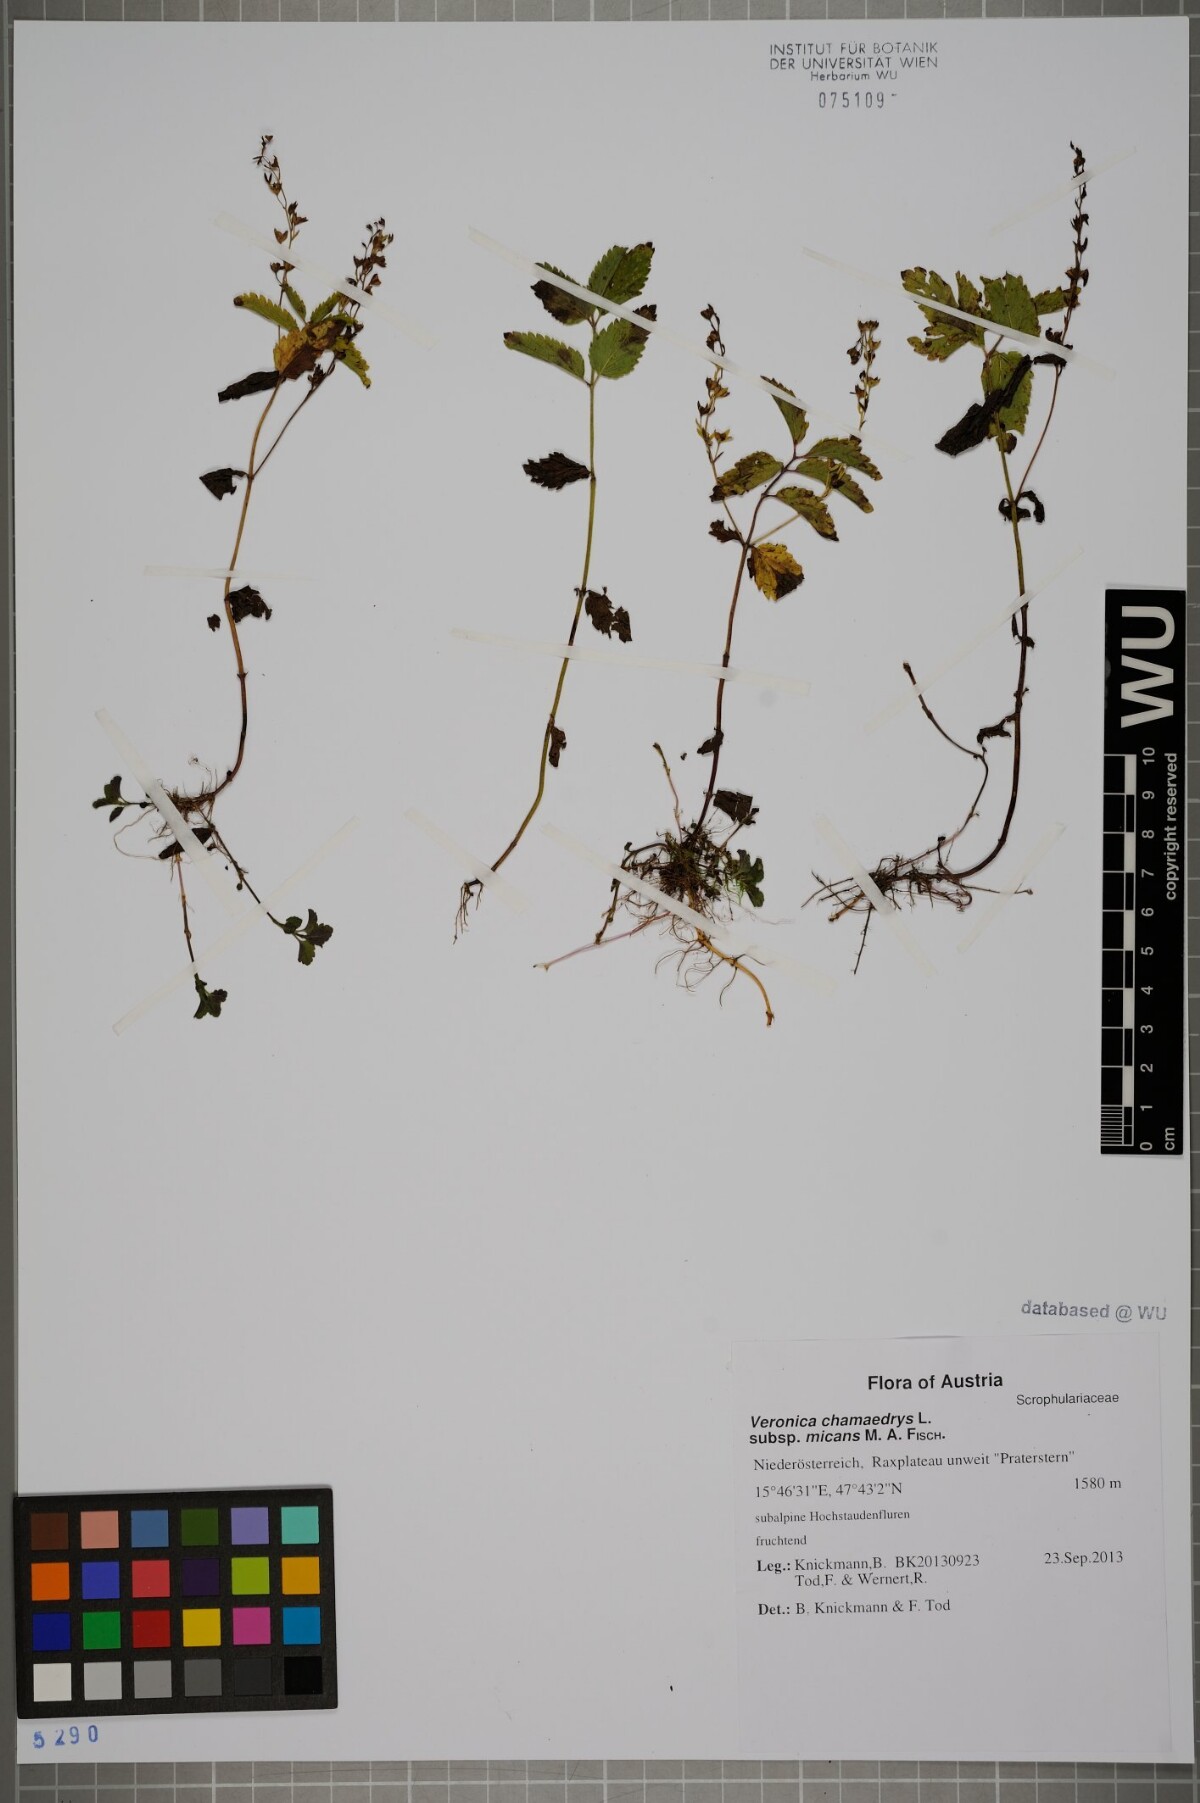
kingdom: Plantae
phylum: Tracheophyta
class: Magnoliopsida
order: Lamiales
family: Plantaginaceae
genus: Veronica
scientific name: Veronica chamaedrys
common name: Germander speedwell
